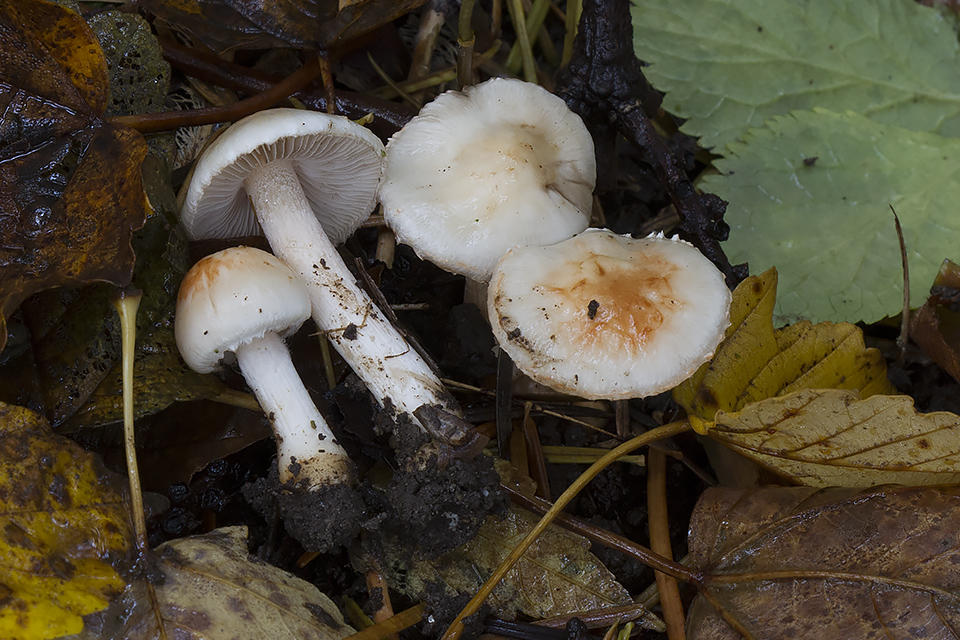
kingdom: Fungi
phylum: Basidiomycota
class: Agaricomycetes
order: Agaricales
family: Inocybaceae
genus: Inocybe
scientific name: Inocybe whitei
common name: Blushing fibrecap
